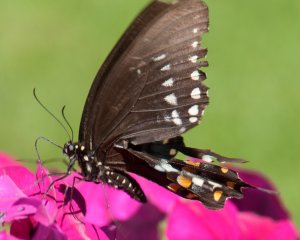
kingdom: Animalia
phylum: Arthropoda
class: Insecta
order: Lepidoptera
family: Papilionidae
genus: Papilio
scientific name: Papilio polyxenes
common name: Black Swallowtail
